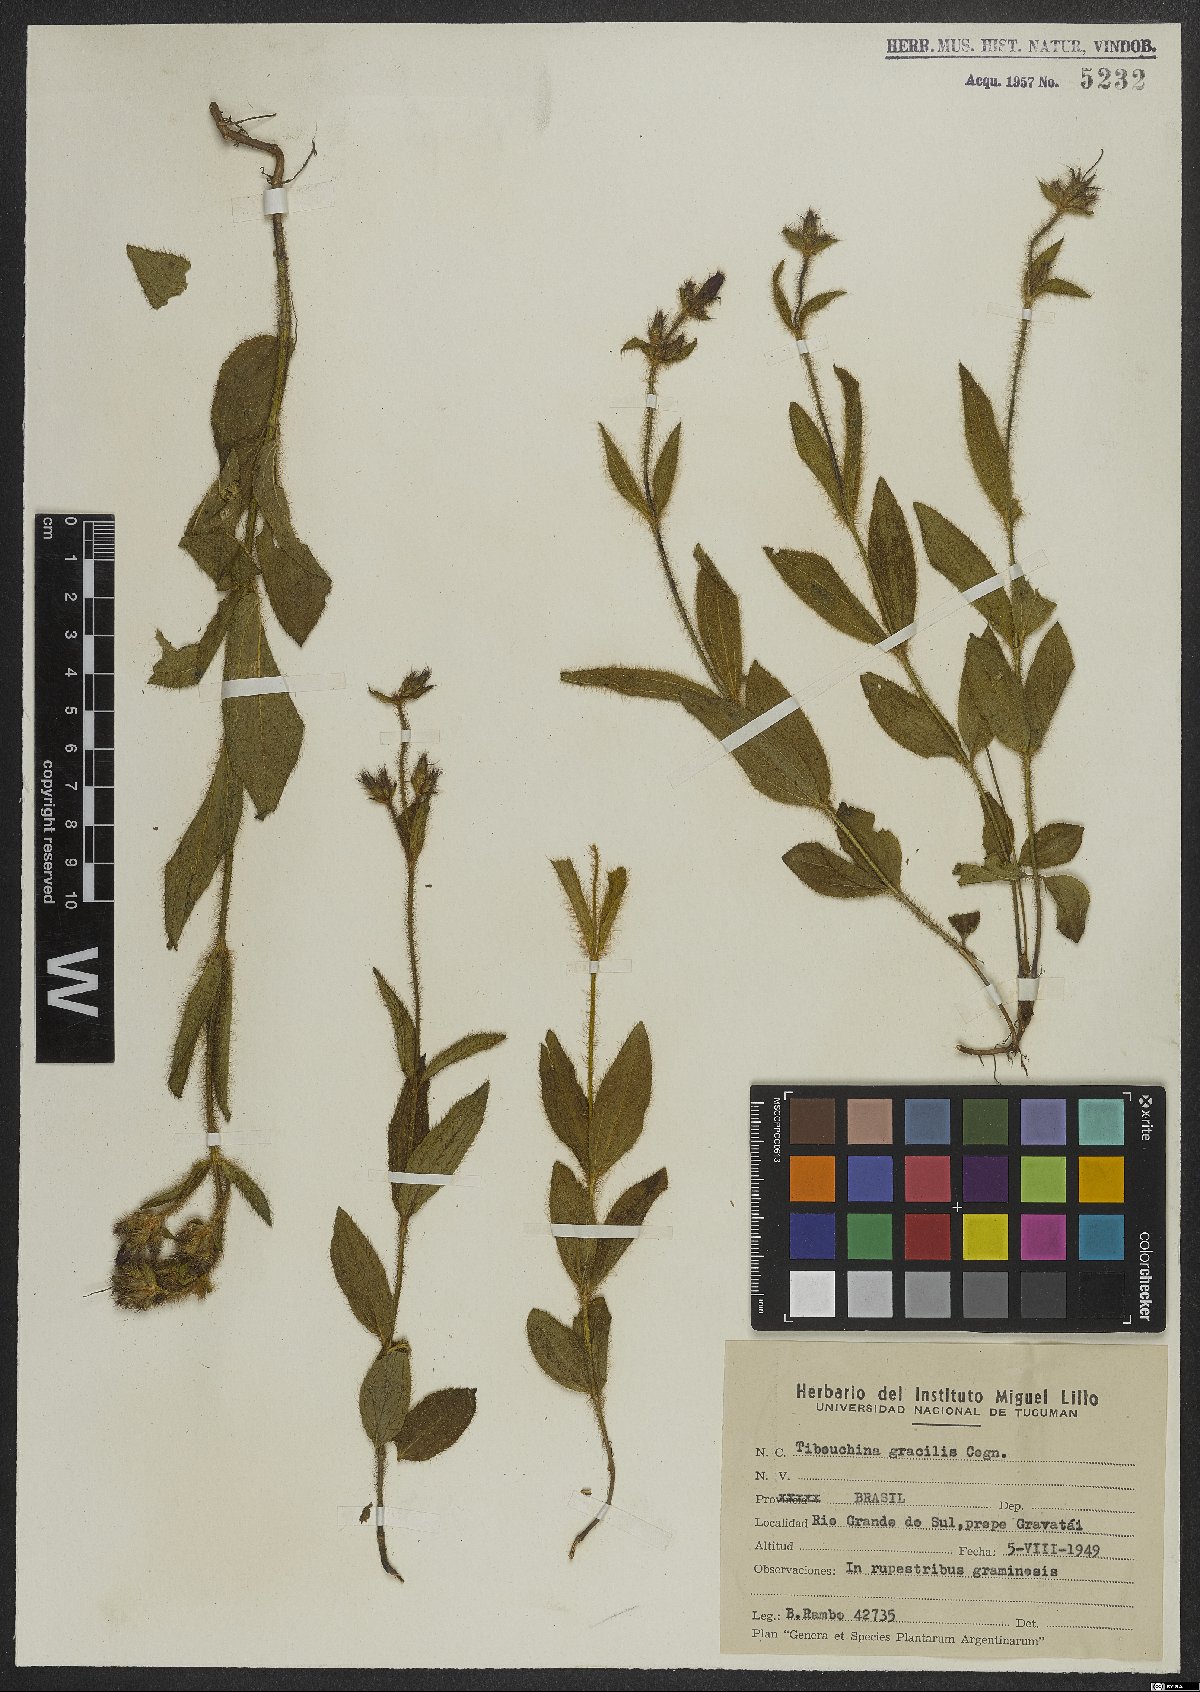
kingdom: Plantae
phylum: Tracheophyta
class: Magnoliopsida
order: Myrtales
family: Melastomataceae
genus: Chaetogastra
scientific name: Chaetogastra gracilis
